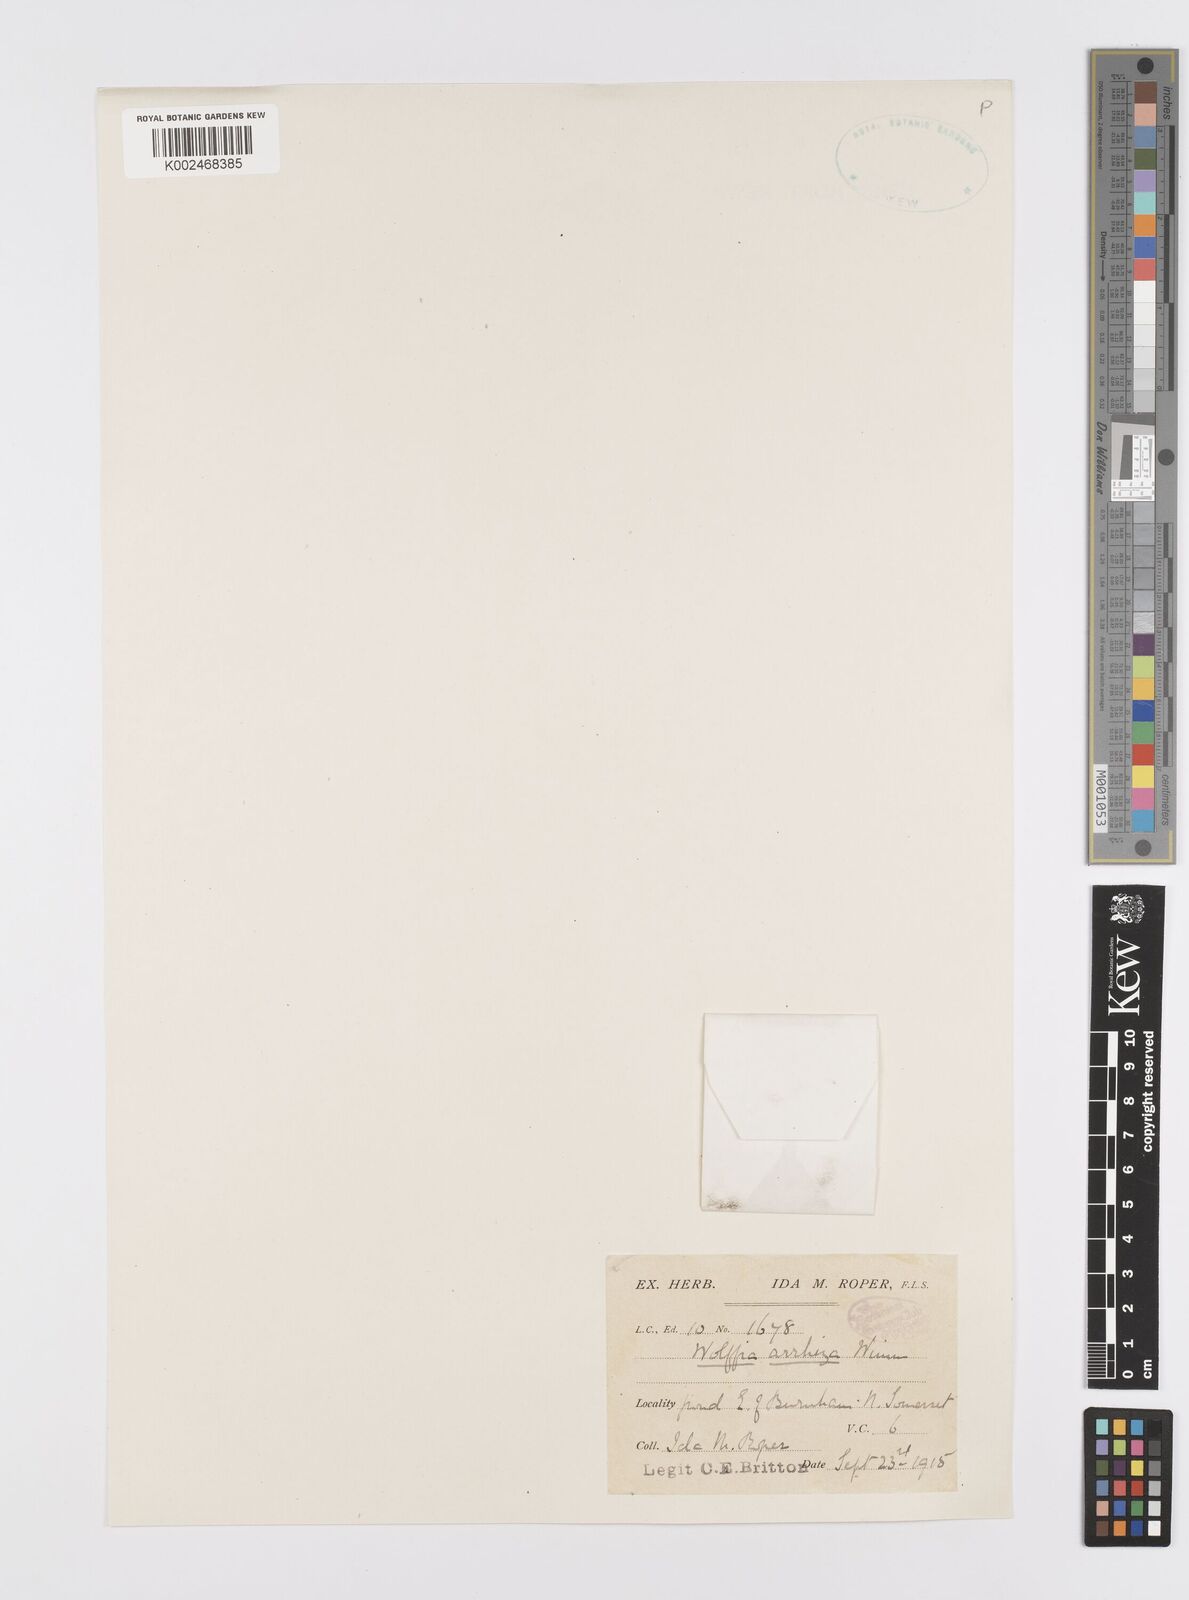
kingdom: Plantae
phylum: Tracheophyta
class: Liliopsida
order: Alismatales
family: Araceae
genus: Wolffia
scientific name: Wolffia arrhiza
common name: Rootless duckweed
